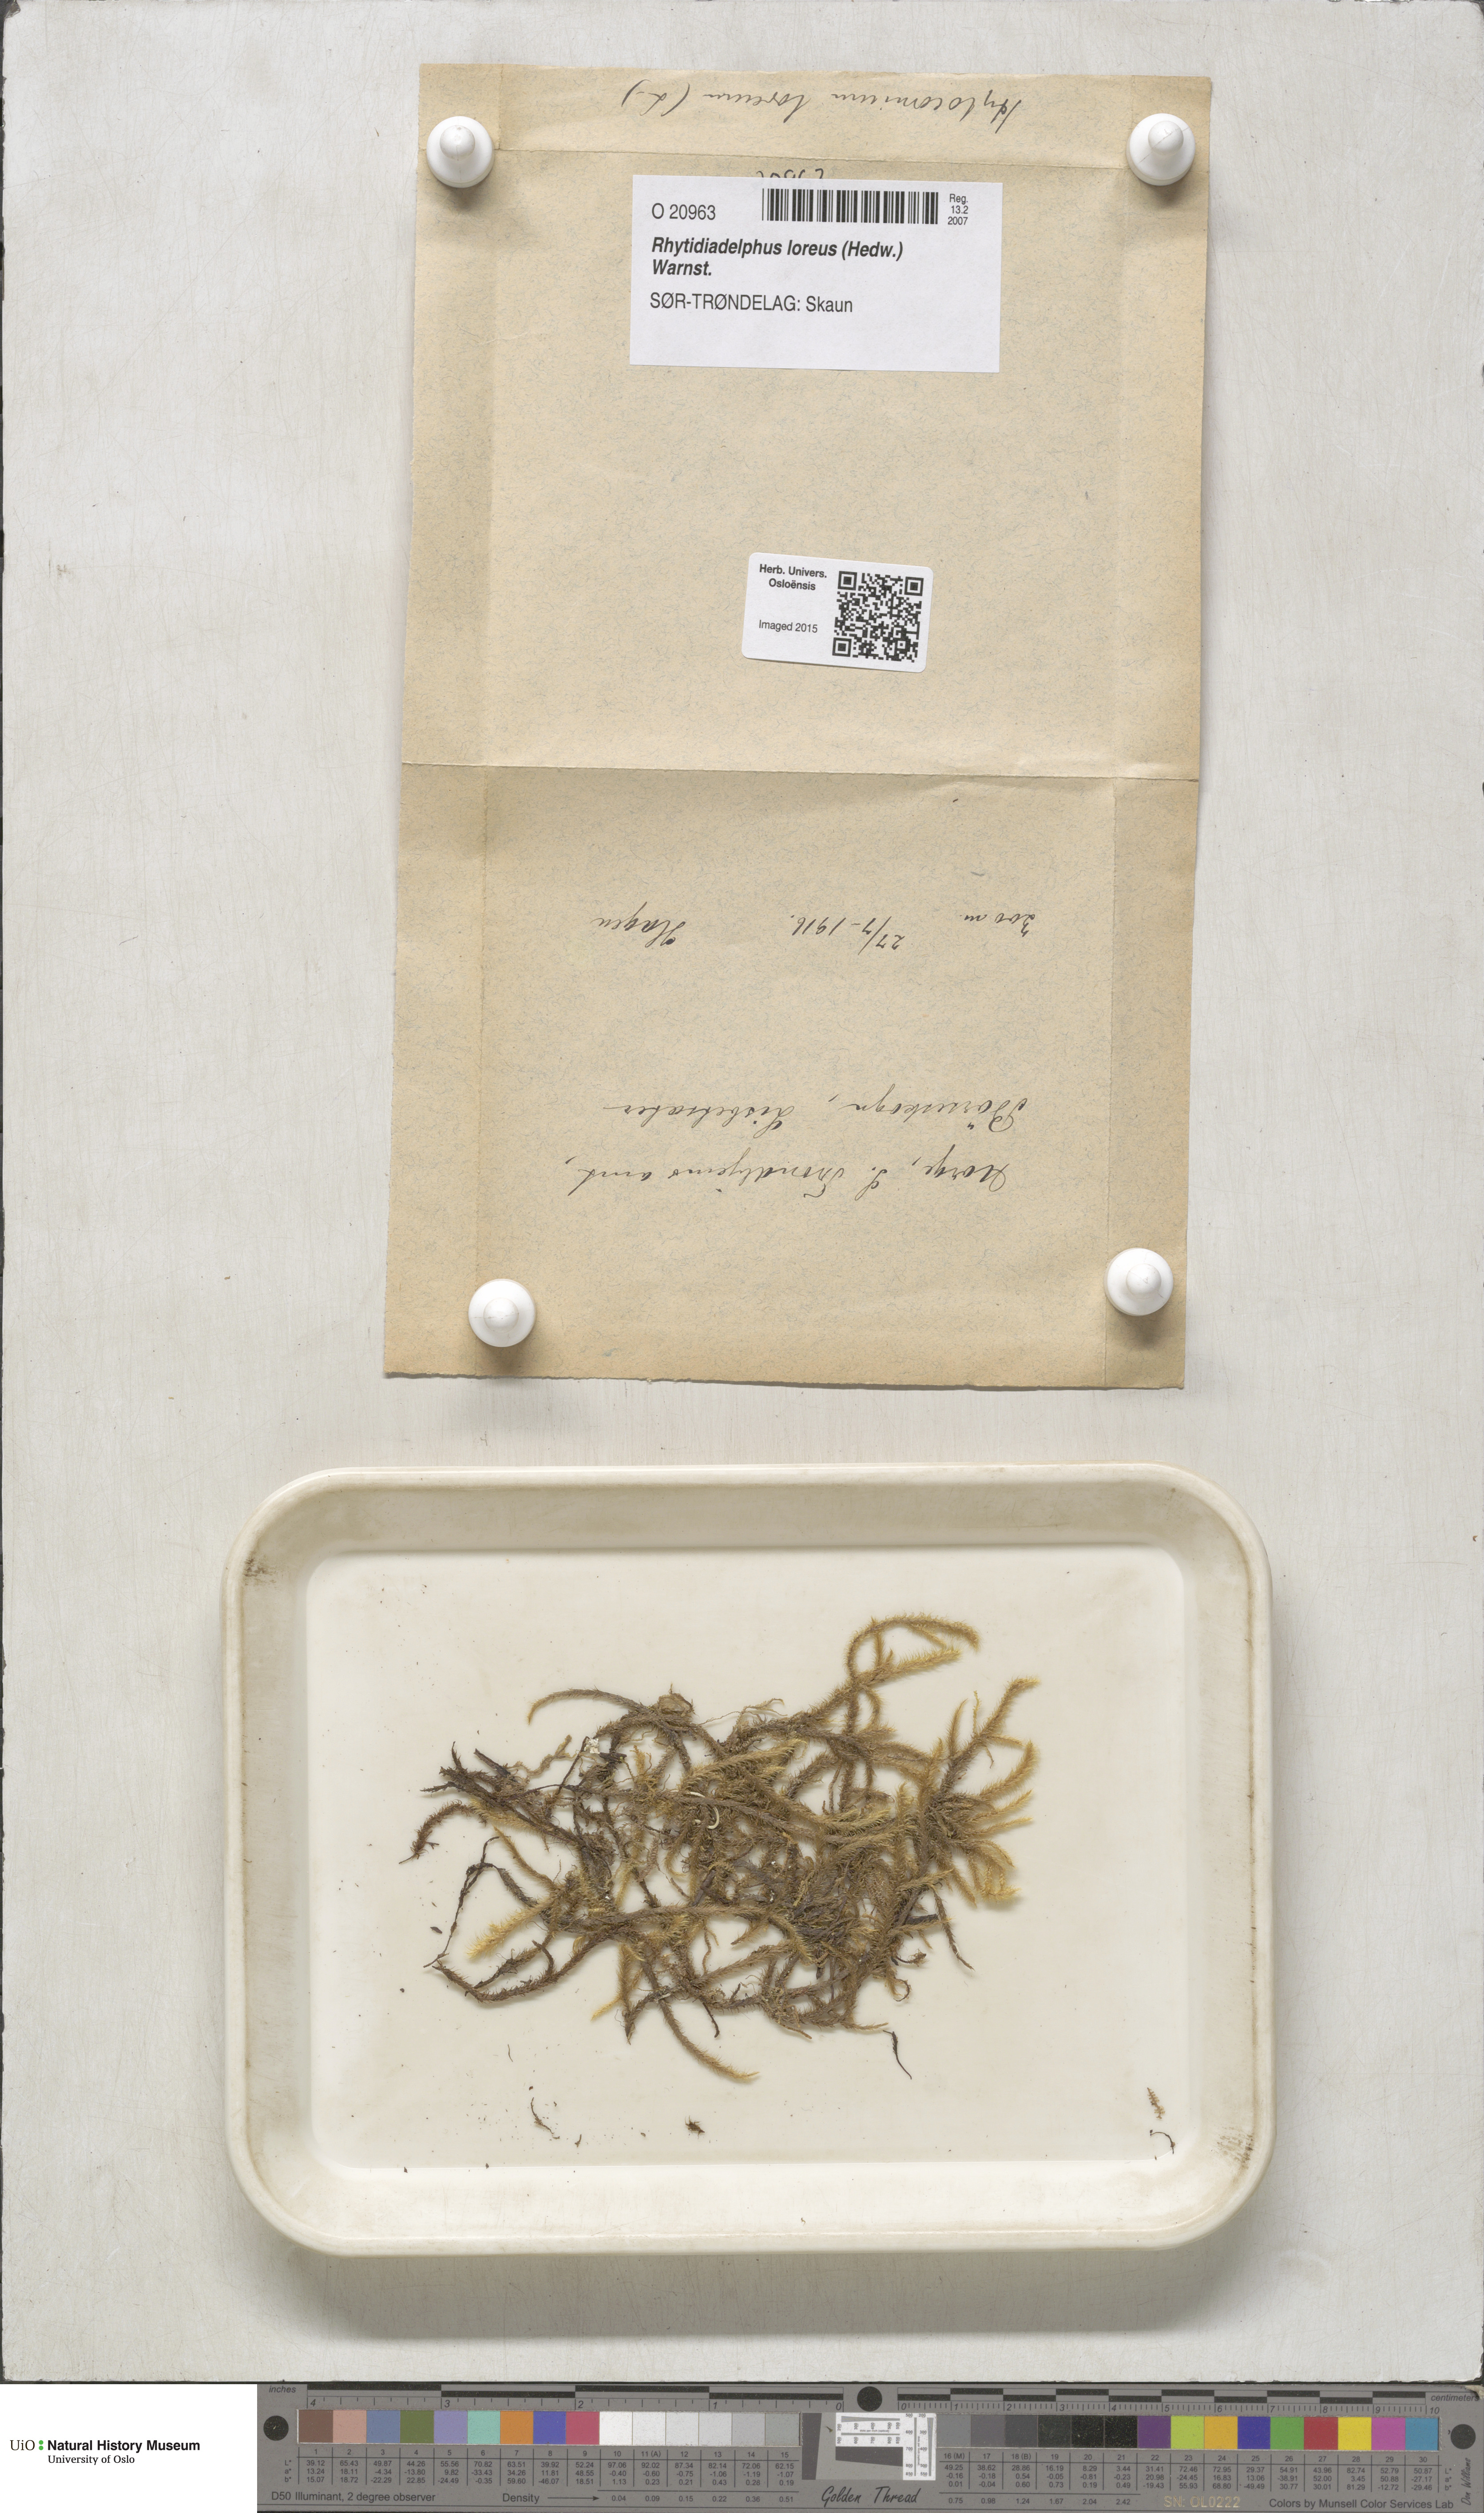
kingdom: Plantae
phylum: Bryophyta
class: Bryopsida
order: Hypnales
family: Hylocomiaceae
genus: Rhytidiadelphus
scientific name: Rhytidiadelphus loreus
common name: Lanky moss
